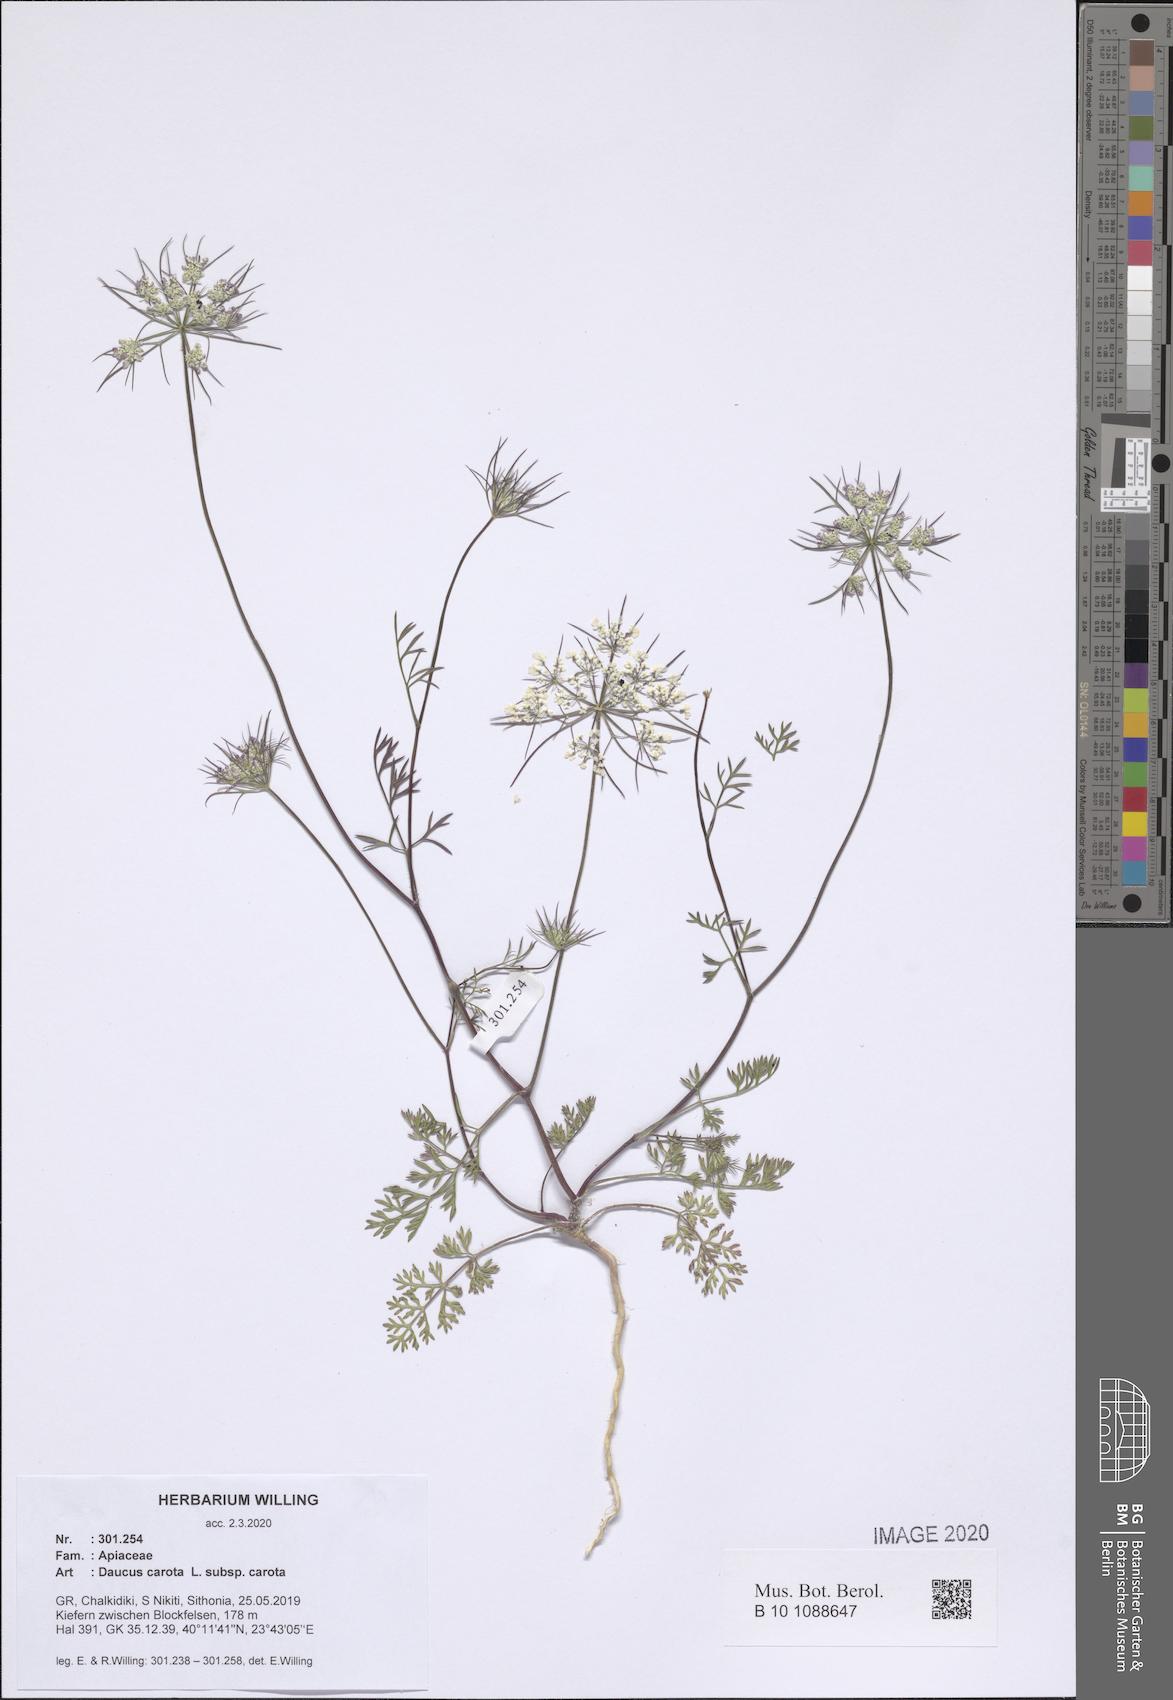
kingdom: Plantae
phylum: Tracheophyta
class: Magnoliopsida
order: Apiales
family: Apiaceae
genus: Daucus
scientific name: Daucus carota
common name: Wild carrot
